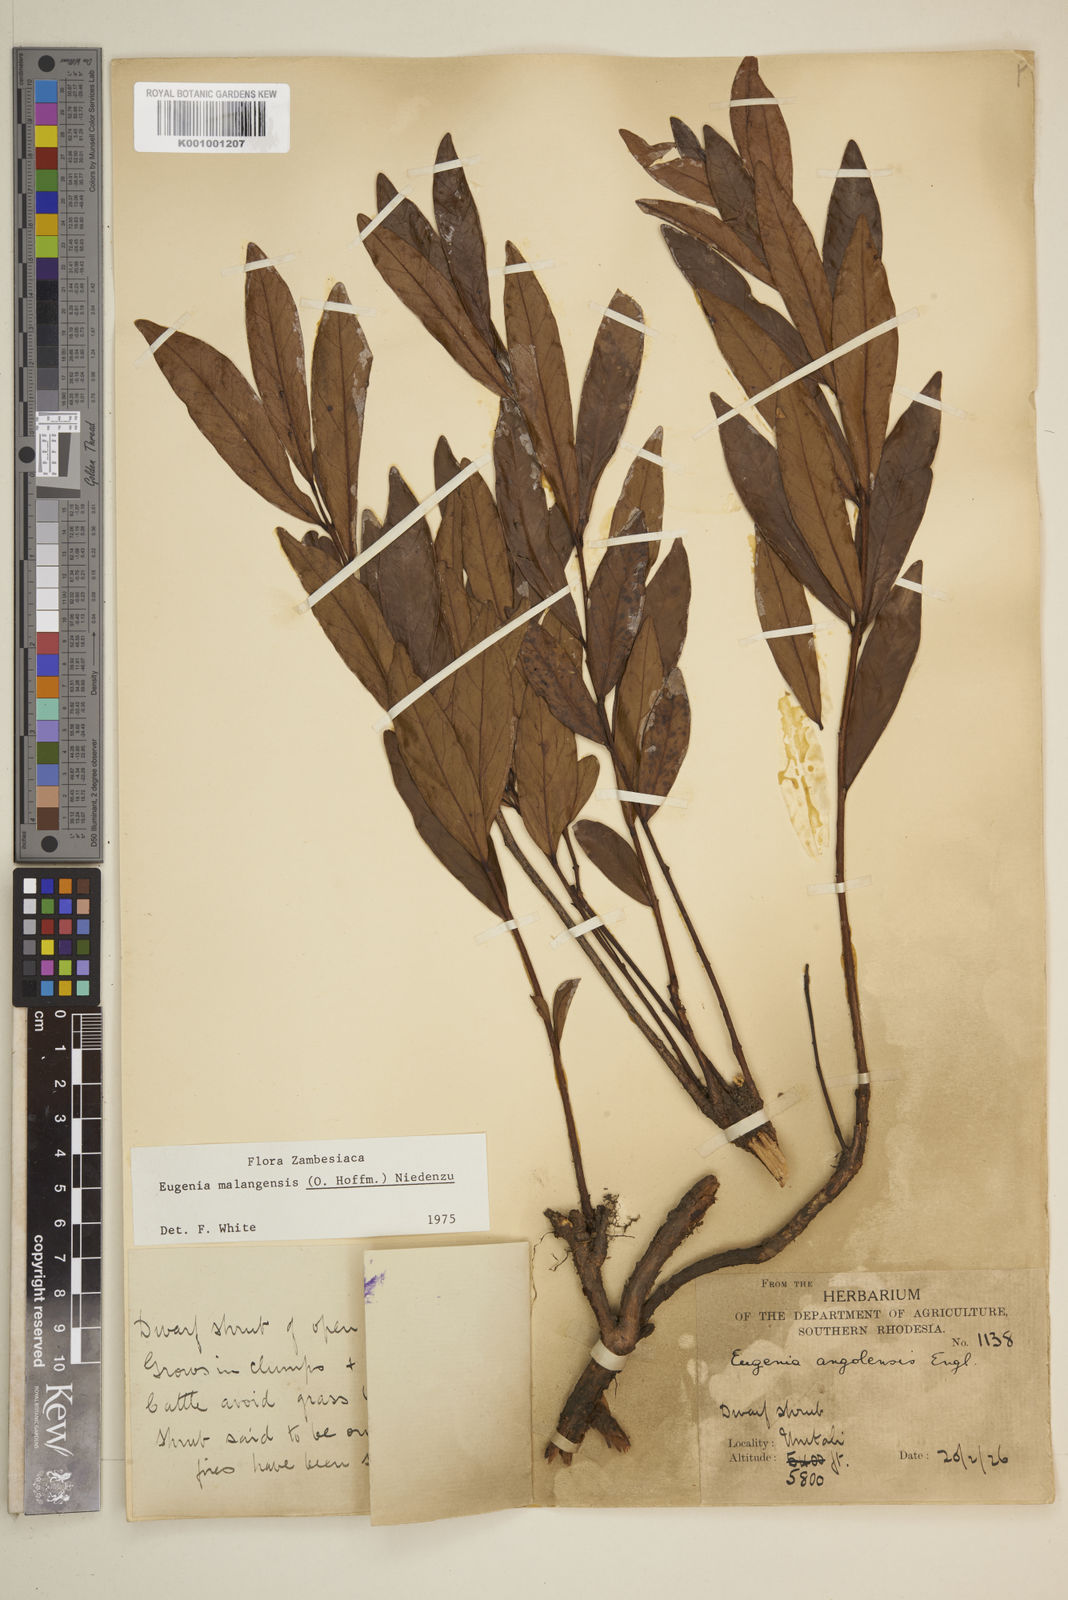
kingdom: Plantae
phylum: Tracheophyta
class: Magnoliopsida
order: Myrtales
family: Myrtaceae
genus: Eugenia
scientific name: Eugenia malangensis
